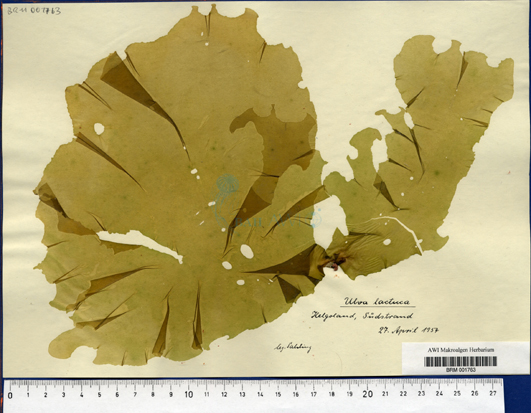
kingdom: Plantae
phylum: Chlorophyta
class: Ulvophyceae
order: Ulvales
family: Ulvaceae
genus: Ulva
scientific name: Ulva lactuca
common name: Sea lettuce
